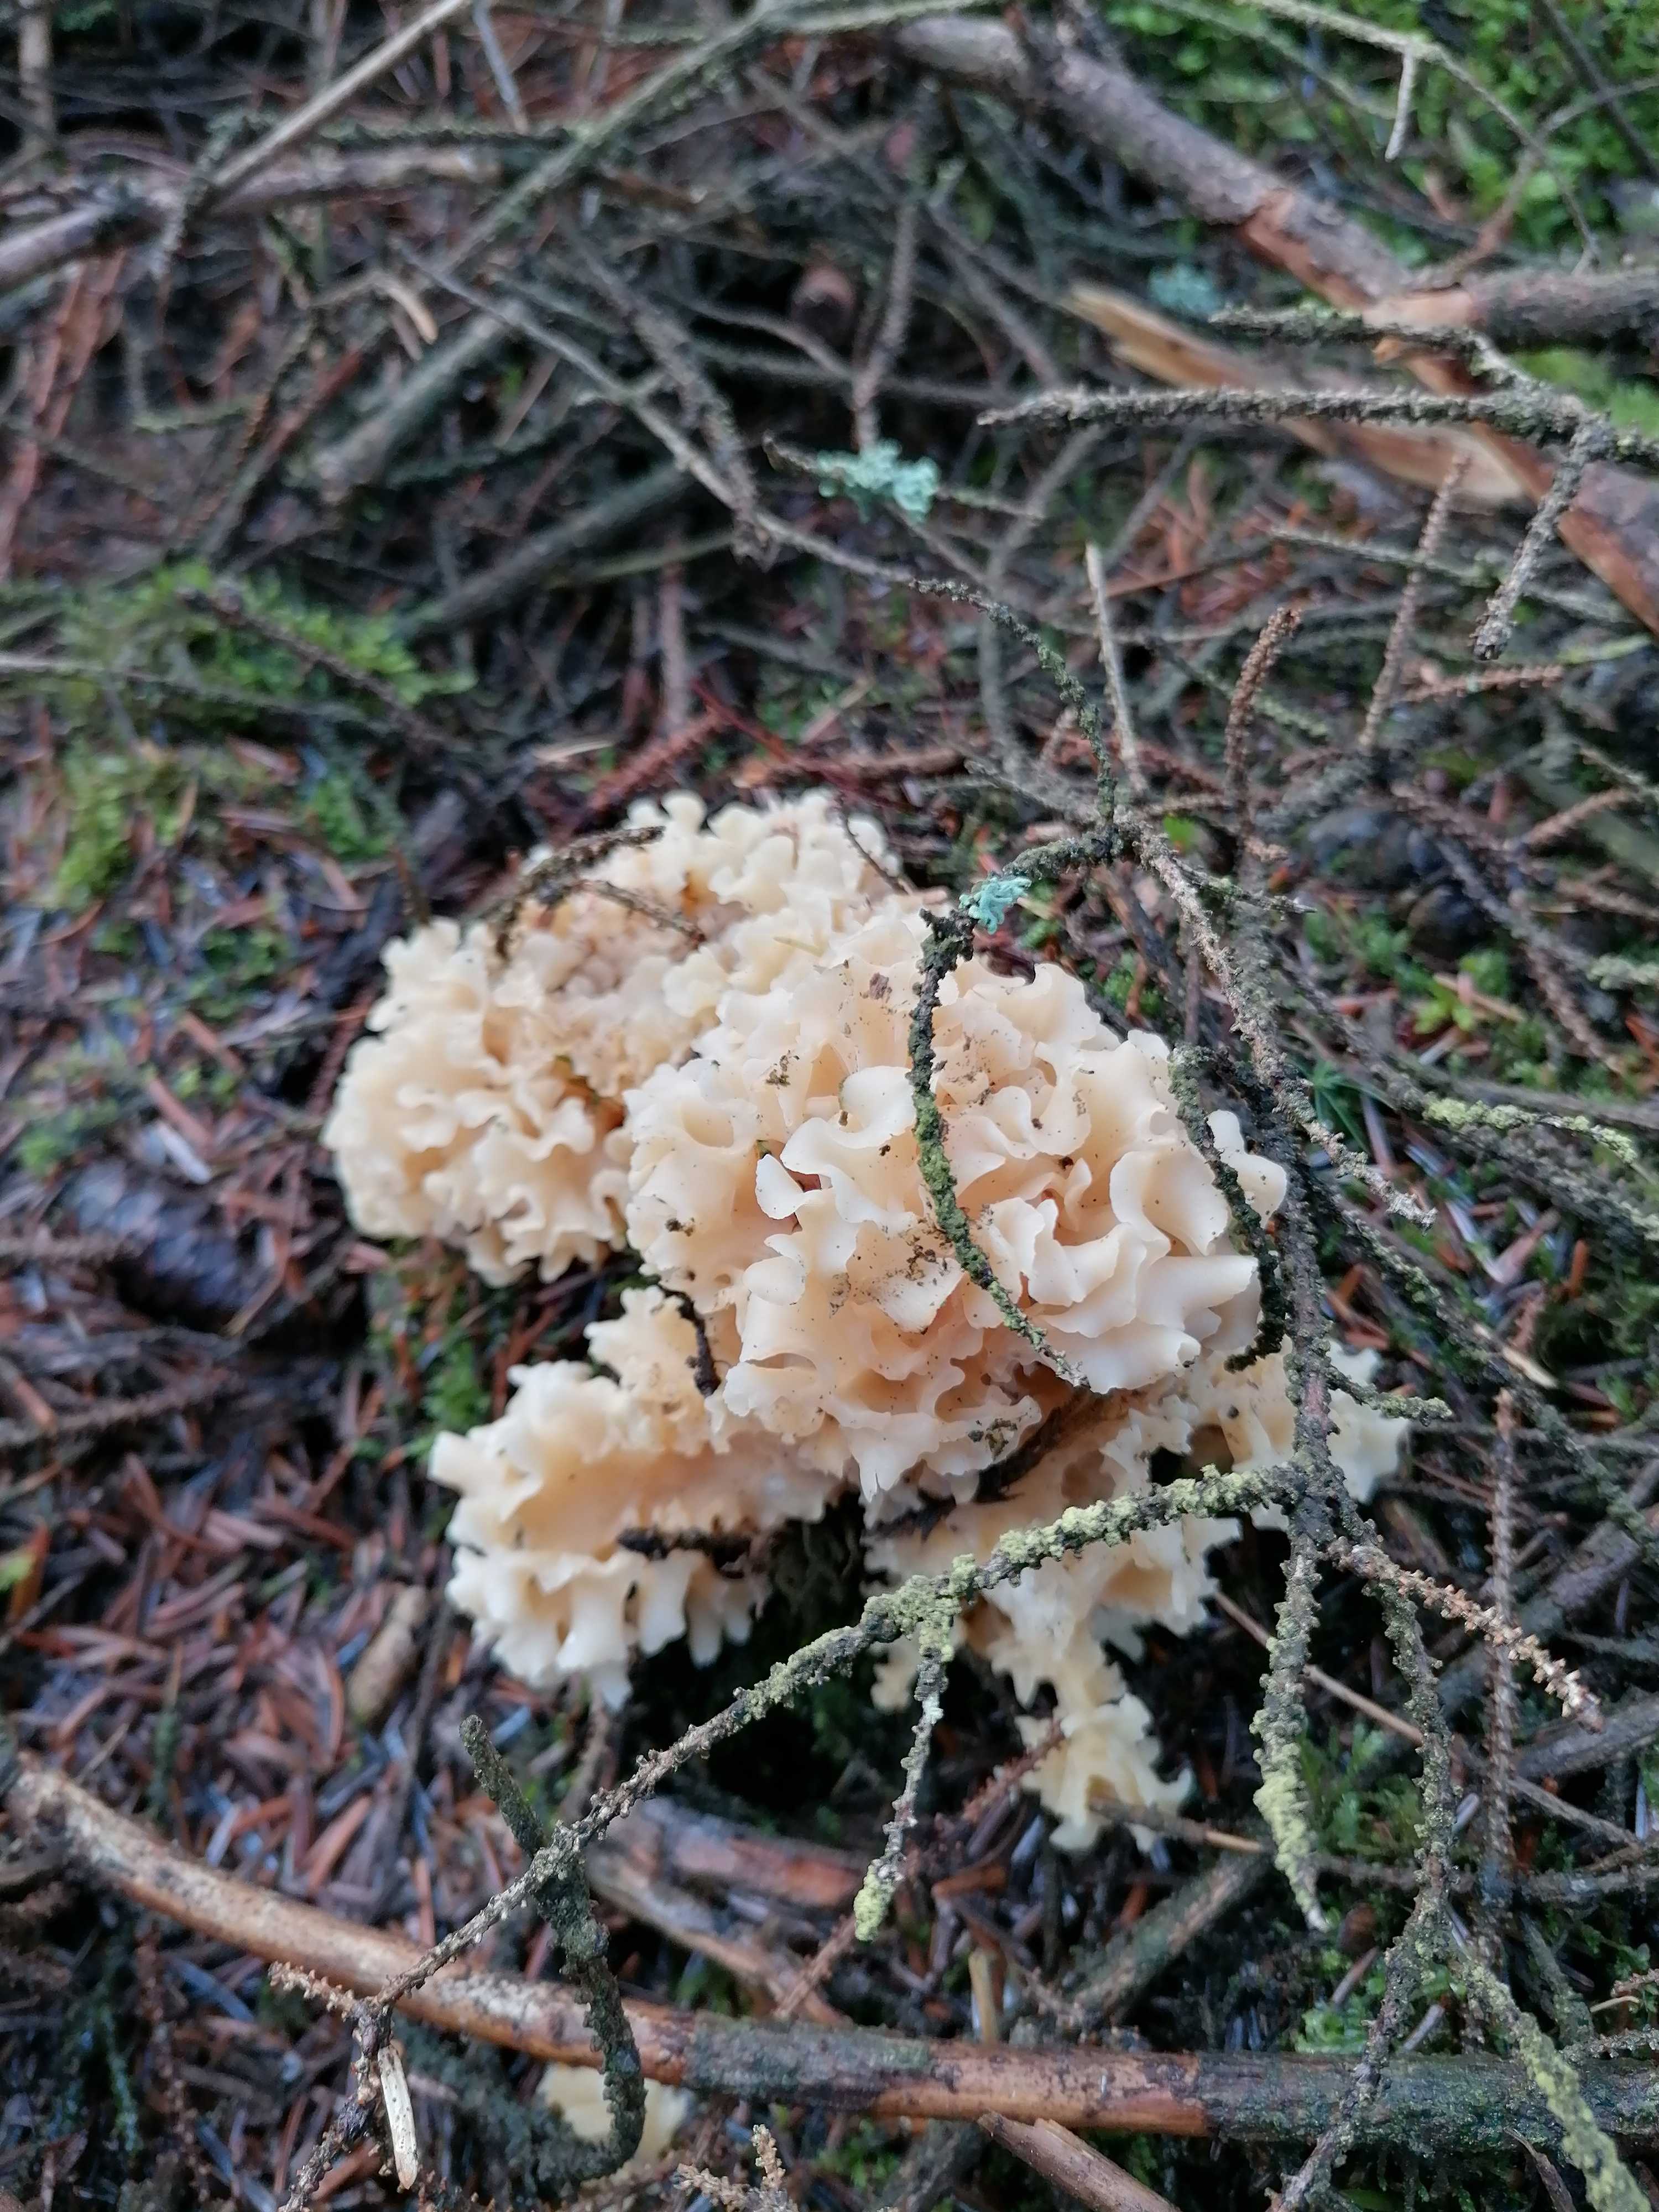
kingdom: Fungi
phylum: Basidiomycota
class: Agaricomycetes
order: Polyporales
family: Sparassidaceae
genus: Sparassis
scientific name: Sparassis crispa
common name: kruset blomkålssvamp
